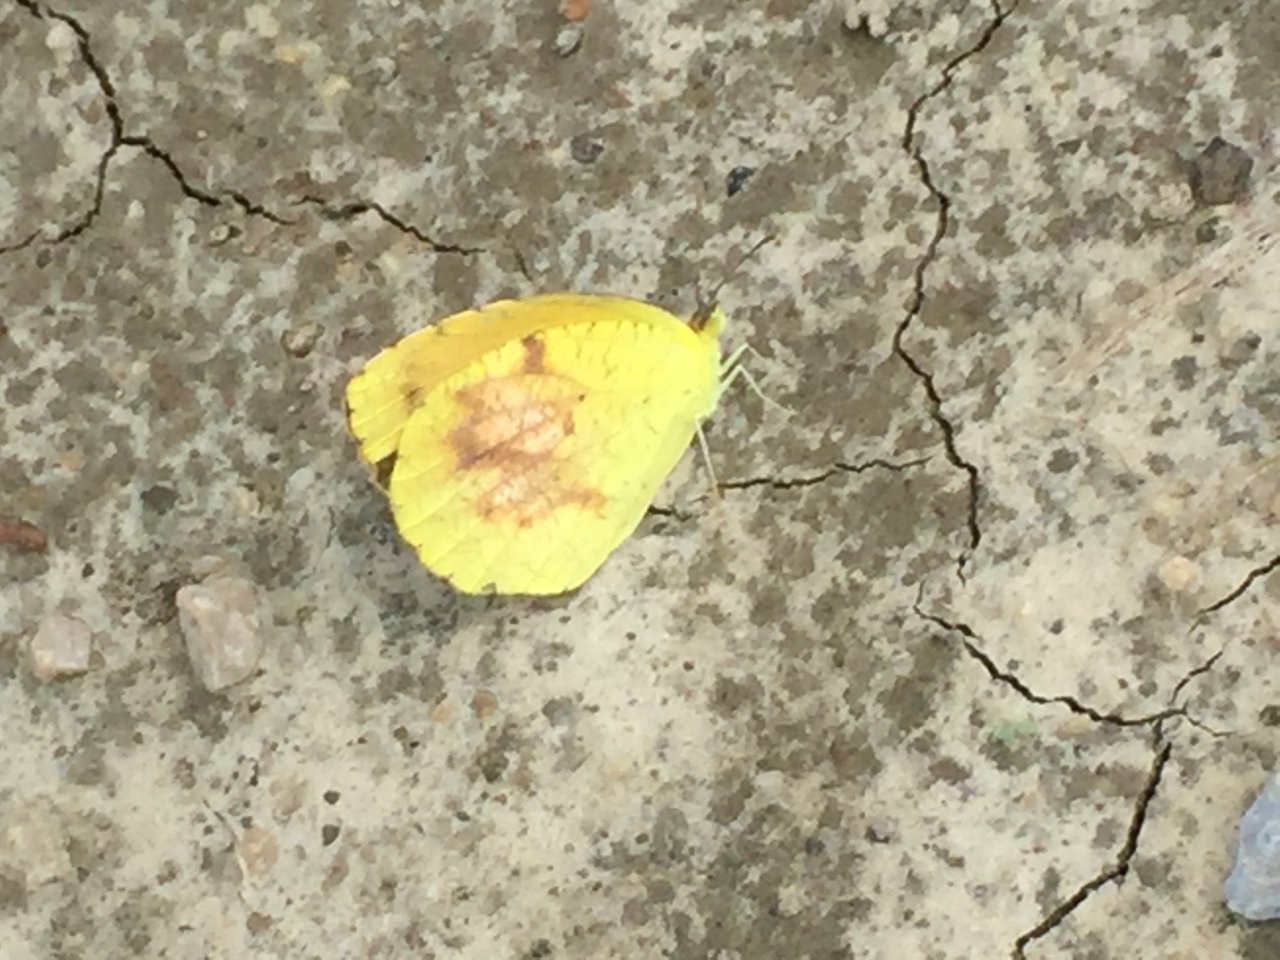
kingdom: Animalia
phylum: Arthropoda
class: Insecta
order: Lepidoptera
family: Pieridae
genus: Abaeis
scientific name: Abaeis nicippe
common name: Sleepy Orange
